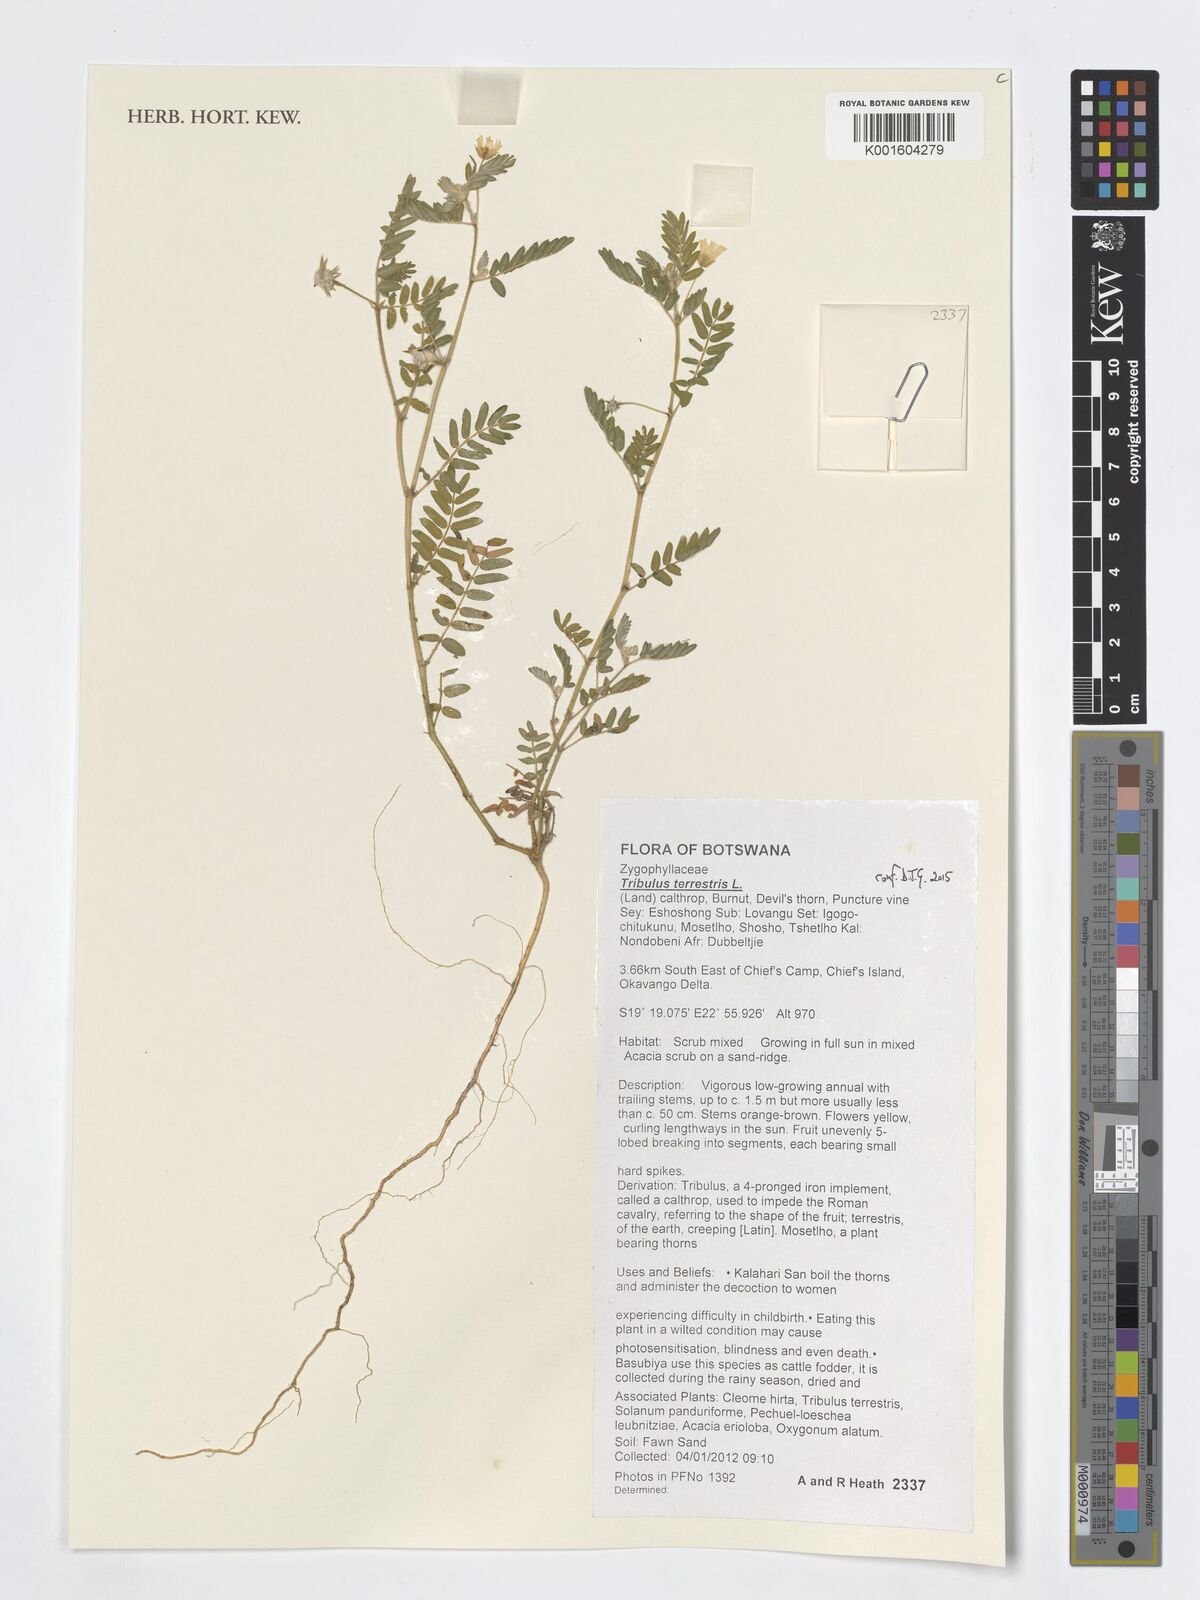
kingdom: Plantae
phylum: Tracheophyta
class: Magnoliopsida
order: Zygophyllales
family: Zygophyllaceae
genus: Tribulus
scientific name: Tribulus terrestris
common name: Puncturevine
